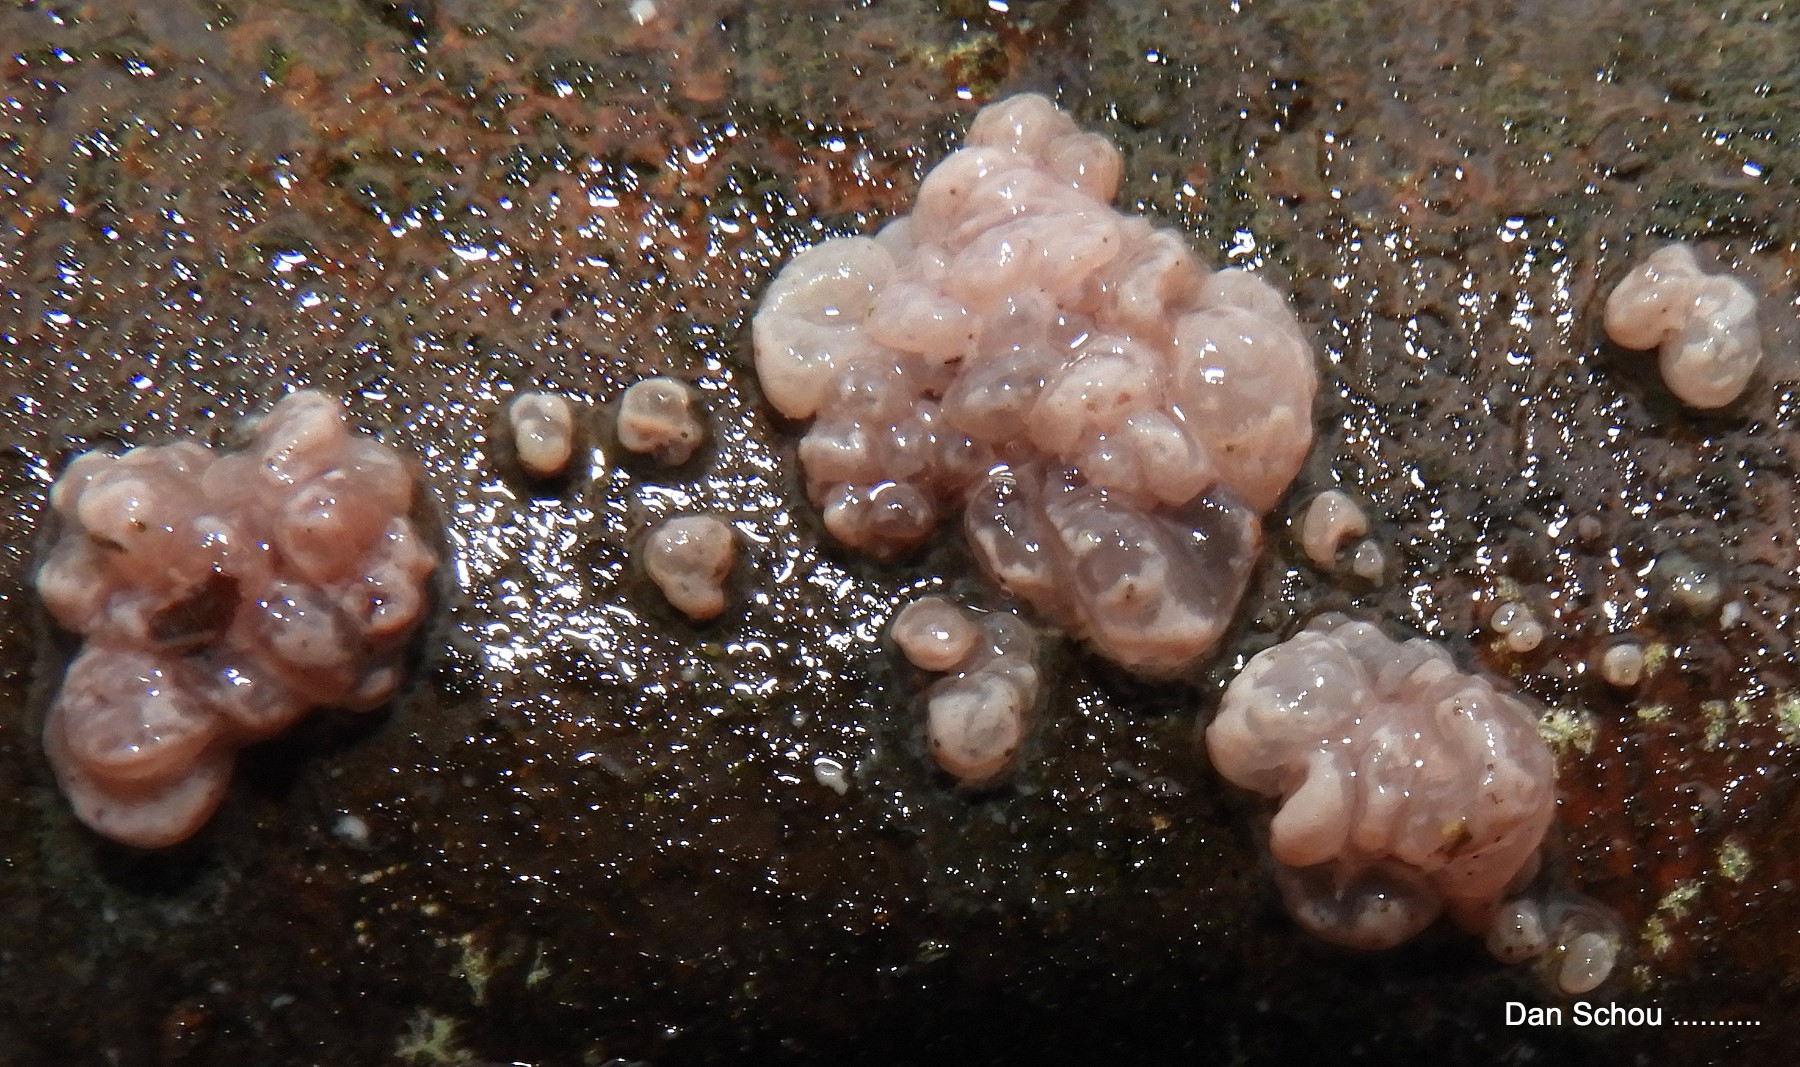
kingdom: Fungi
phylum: Ascomycota
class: Leotiomycetes
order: Helotiales
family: Gelatinodiscaceae
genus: Ascocoryne
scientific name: Ascocoryne sarcoides
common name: rødlilla sejskive
